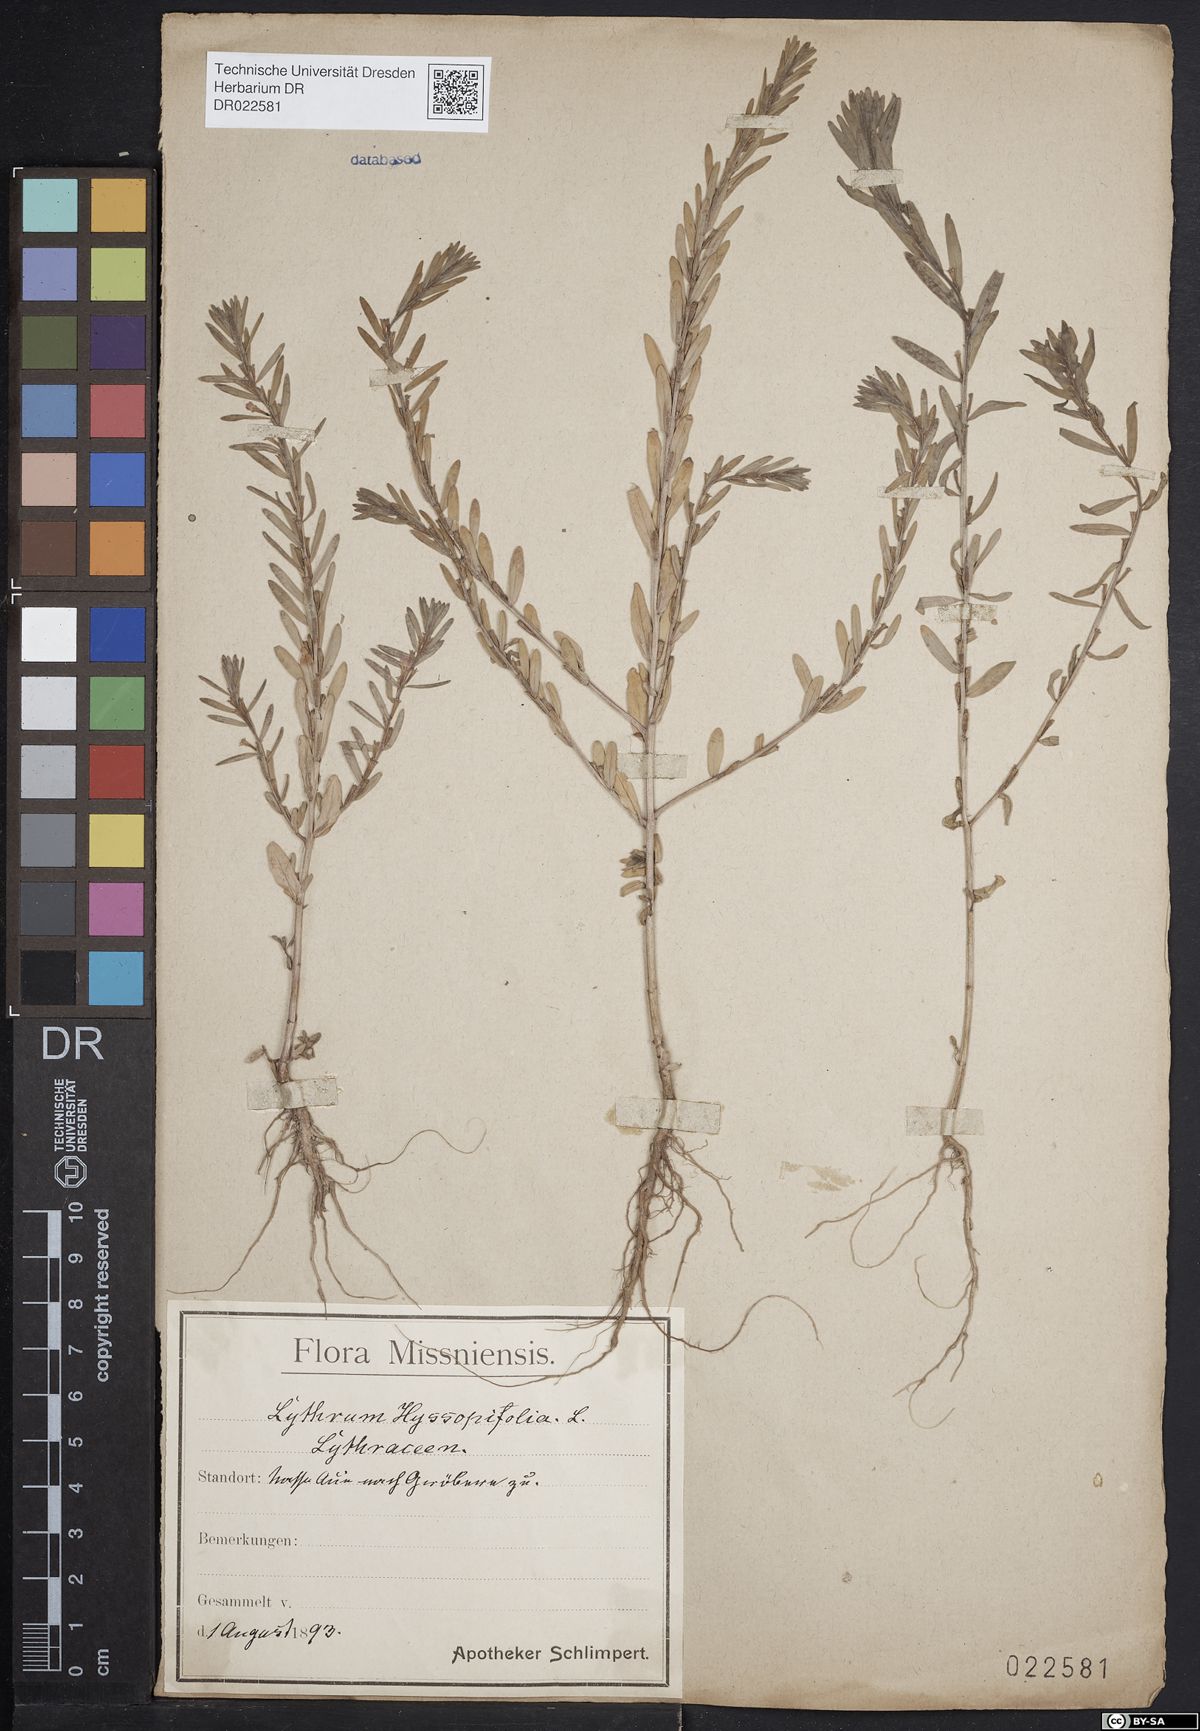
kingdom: Plantae
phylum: Tracheophyta
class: Magnoliopsida
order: Myrtales
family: Lythraceae
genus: Lythrum
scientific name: Lythrum hyssopifolia
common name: Grass-poly
